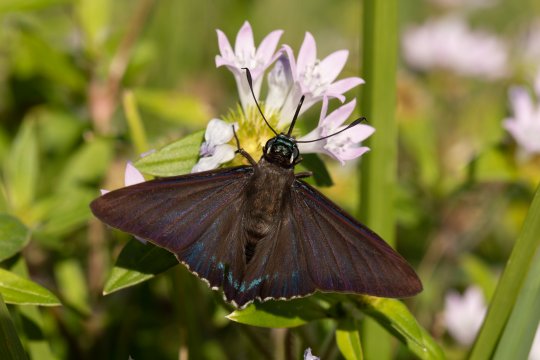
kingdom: Animalia
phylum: Arthropoda
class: Insecta
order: Lepidoptera
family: Hesperiidae
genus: Phocides
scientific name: Phocides pigmalion
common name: Mangrove Skipper
